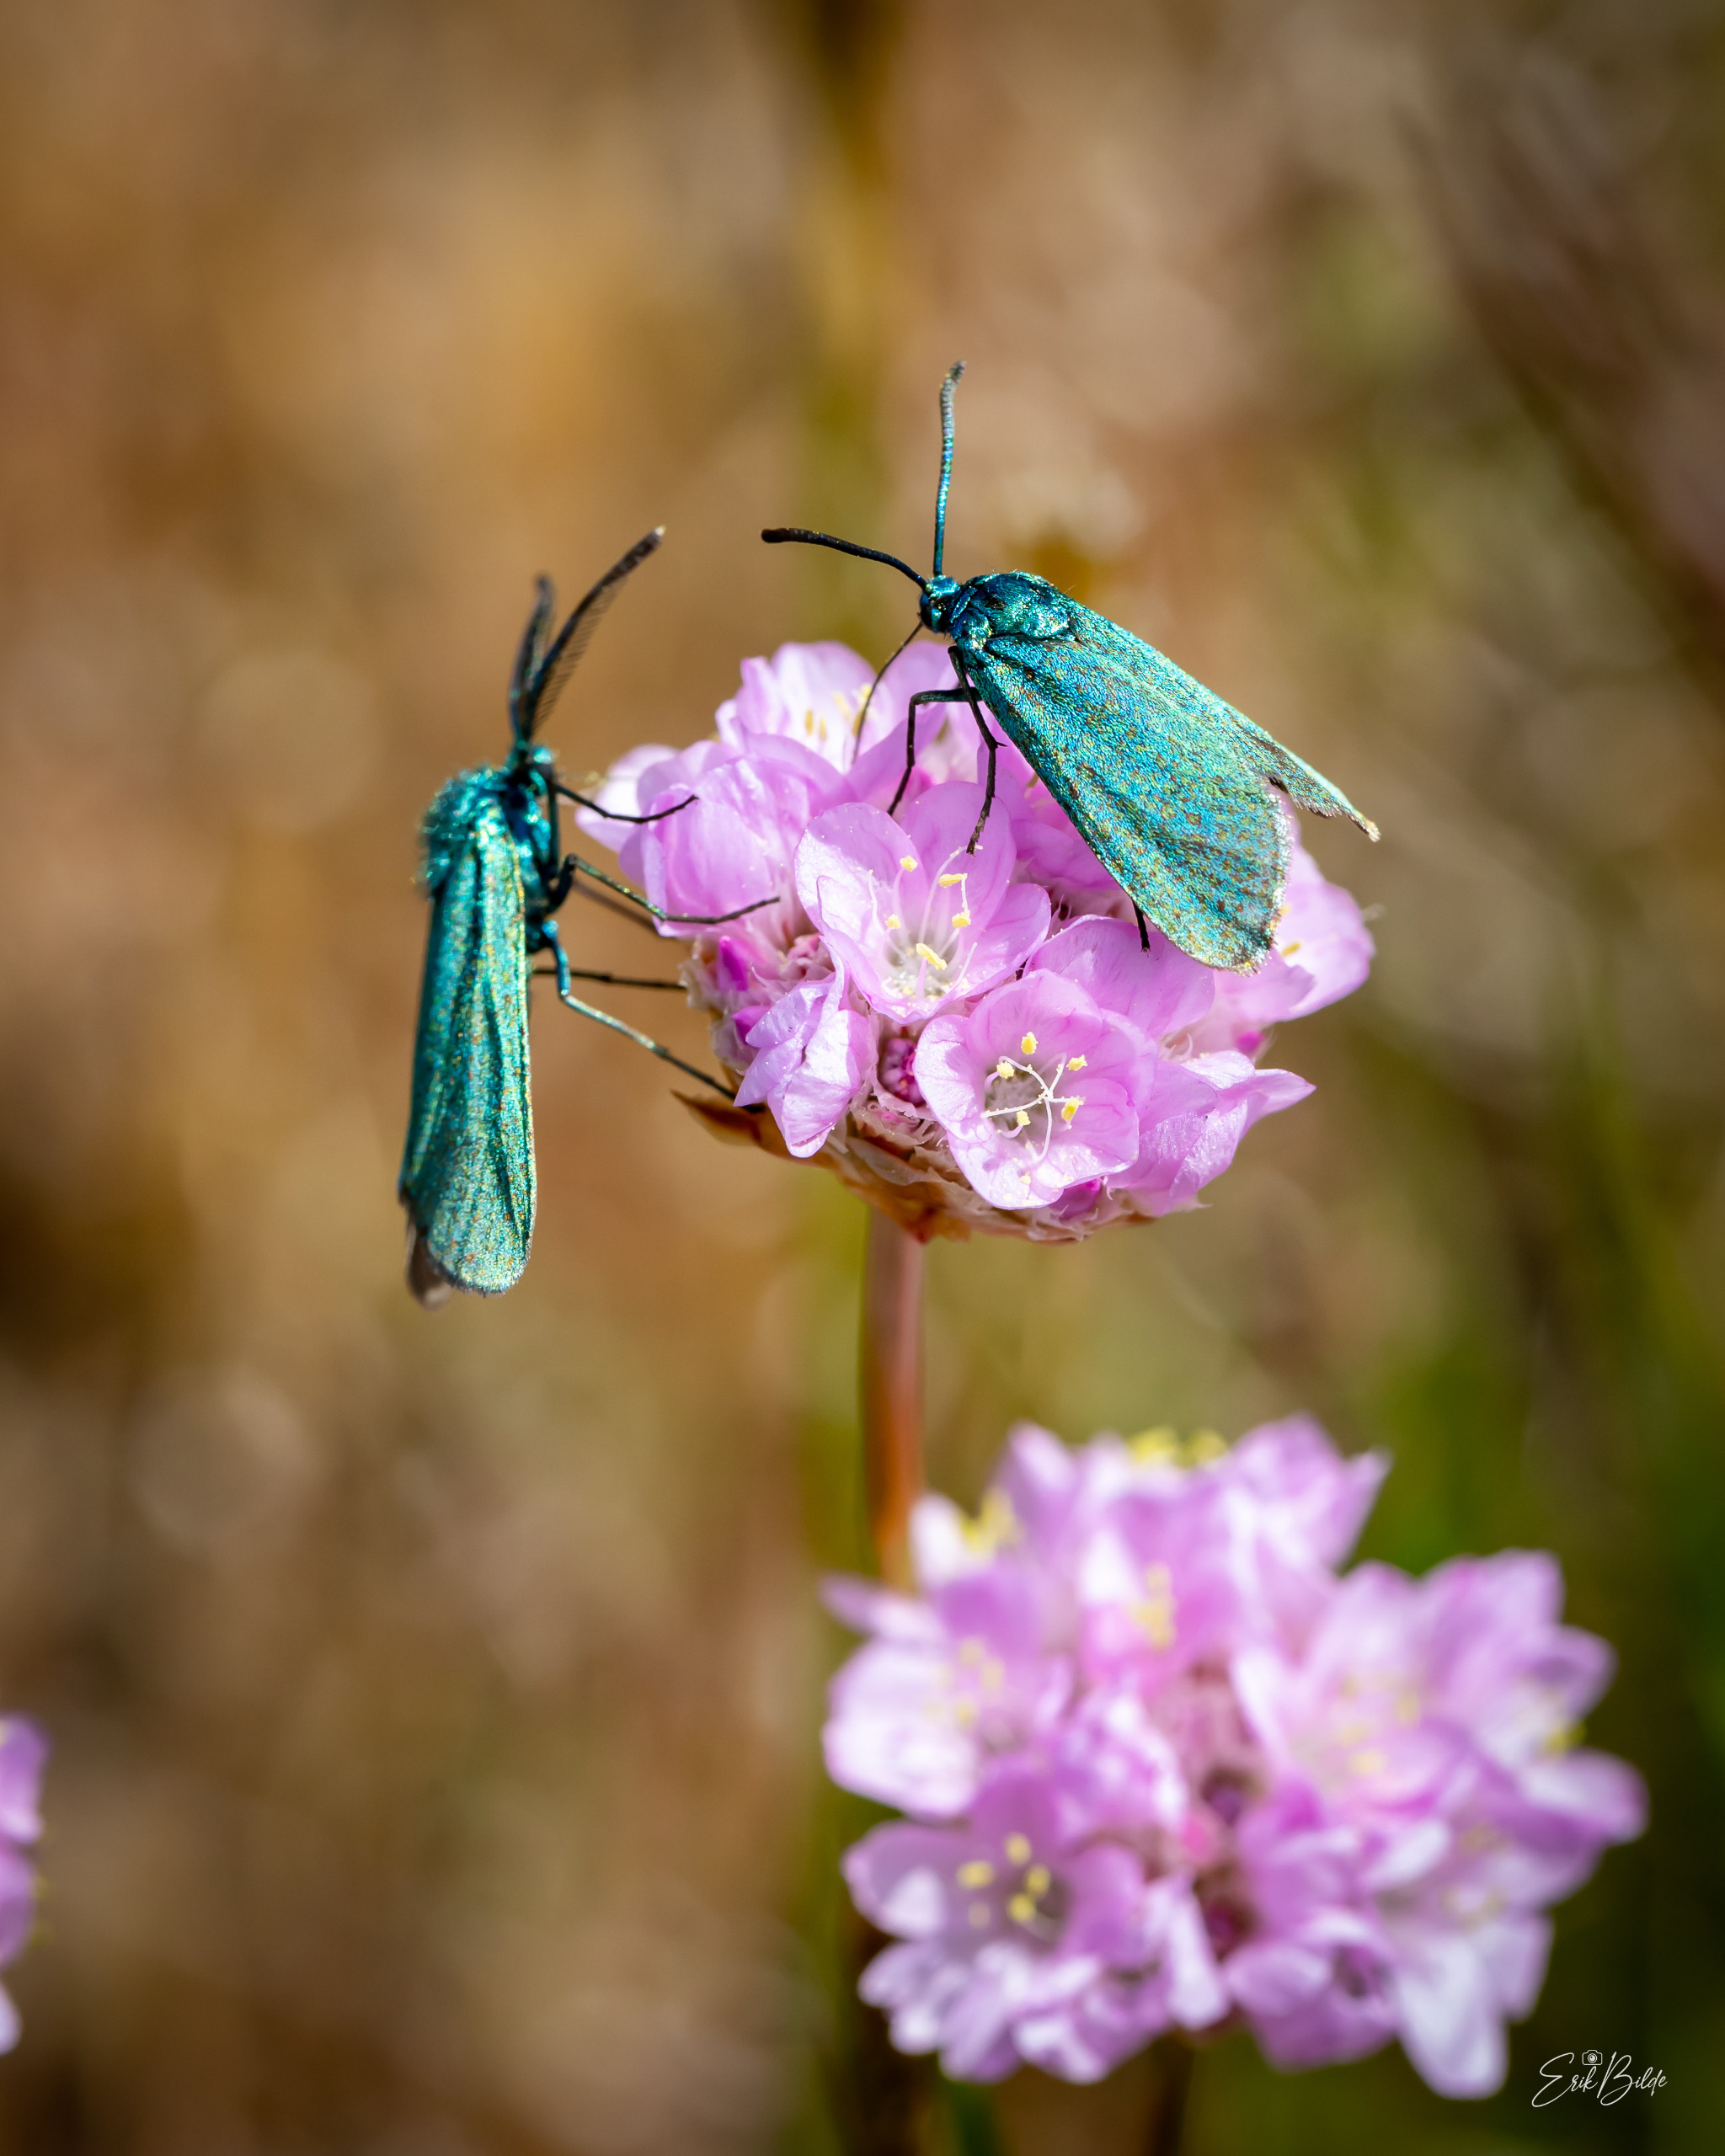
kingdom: Animalia
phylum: Arthropoda
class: Insecta
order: Lepidoptera
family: Zygaenidae
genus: Adscita
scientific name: Adscita statices
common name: Metalvinge
